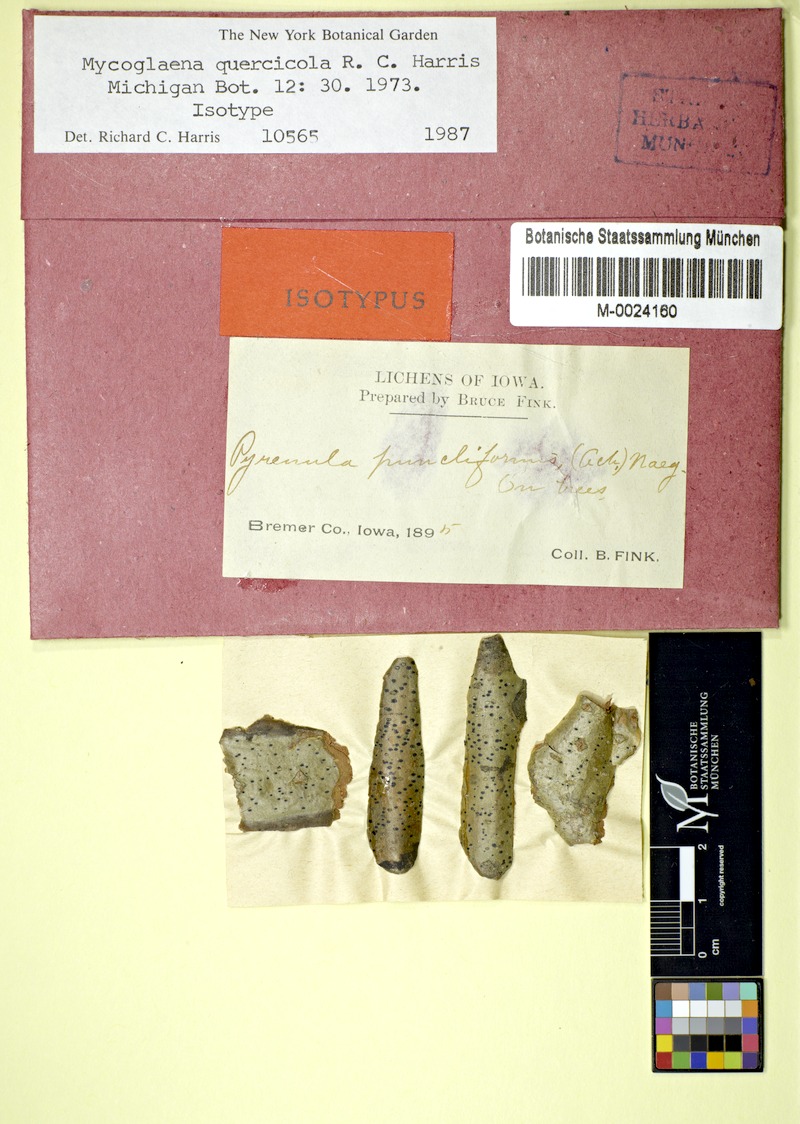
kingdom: Fungi
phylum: Ascomycota
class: Dothideomycetes
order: Dothideales
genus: Mycoglaena
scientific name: Mycoglaena quercicola
